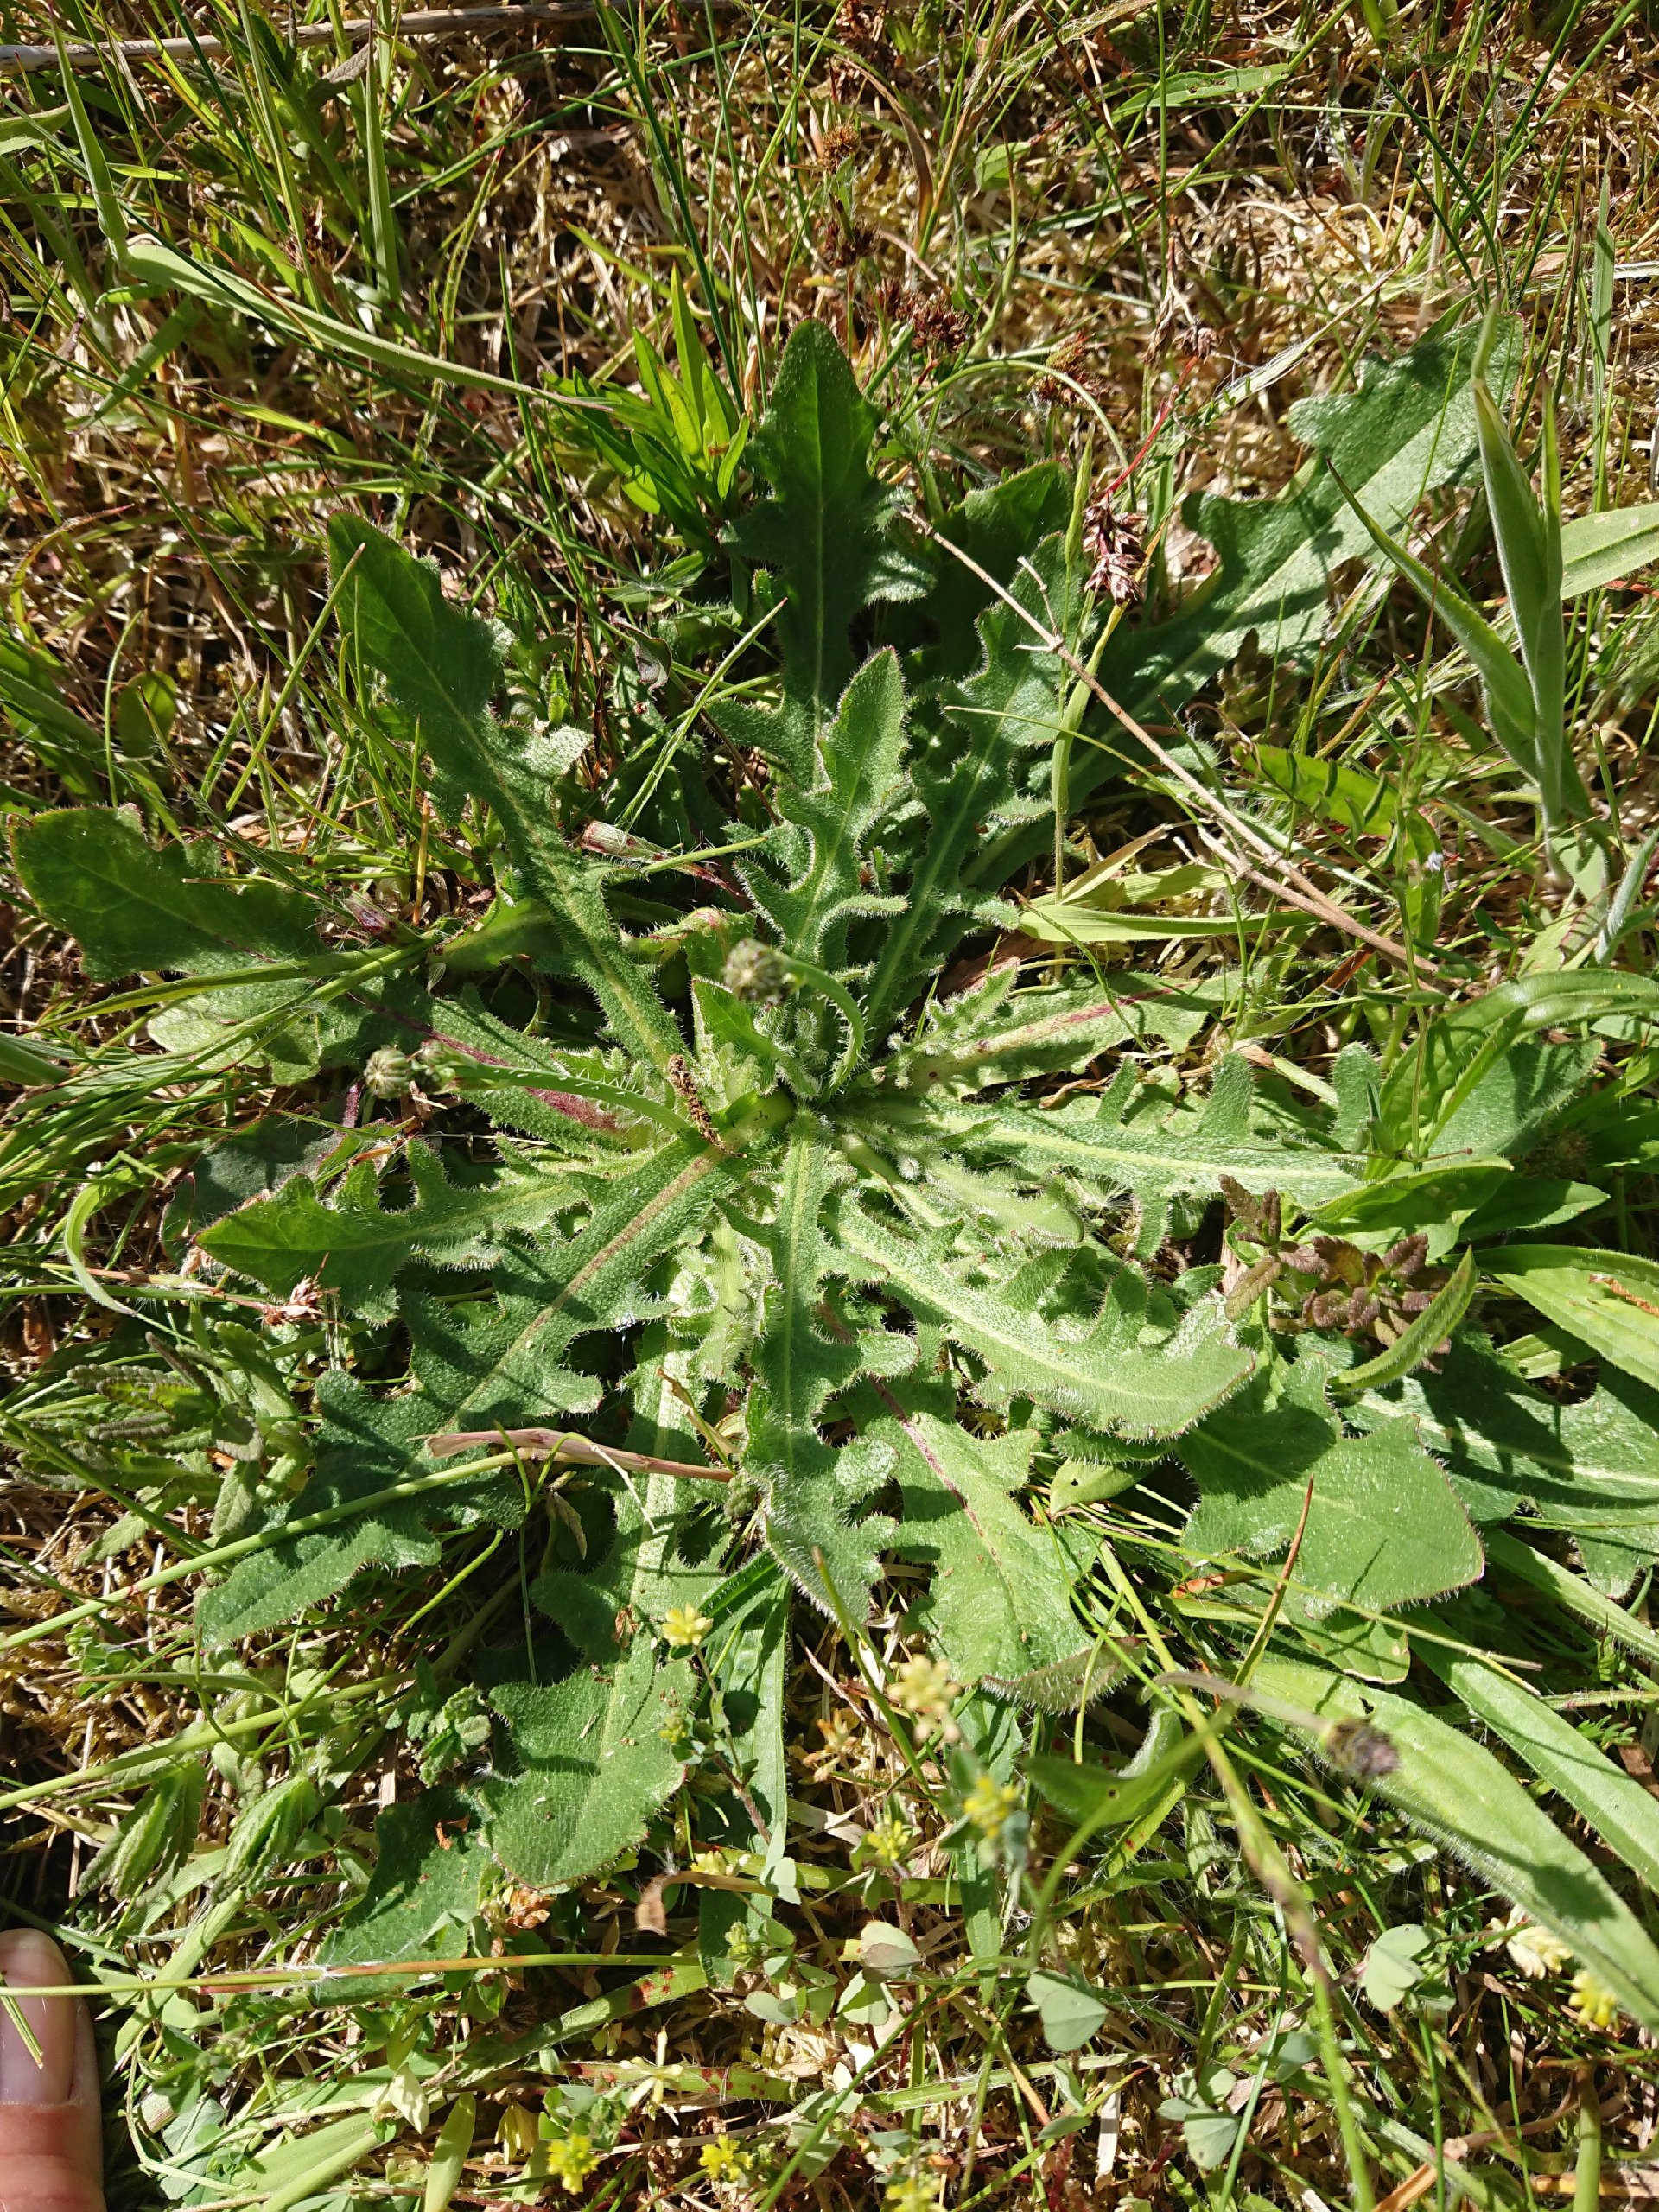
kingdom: Plantae
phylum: Tracheophyta
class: Magnoliopsida
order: Asterales
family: Asteraceae
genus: Hypochaeris
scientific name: Hypochaeris radicata
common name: Almindelig kongepen
